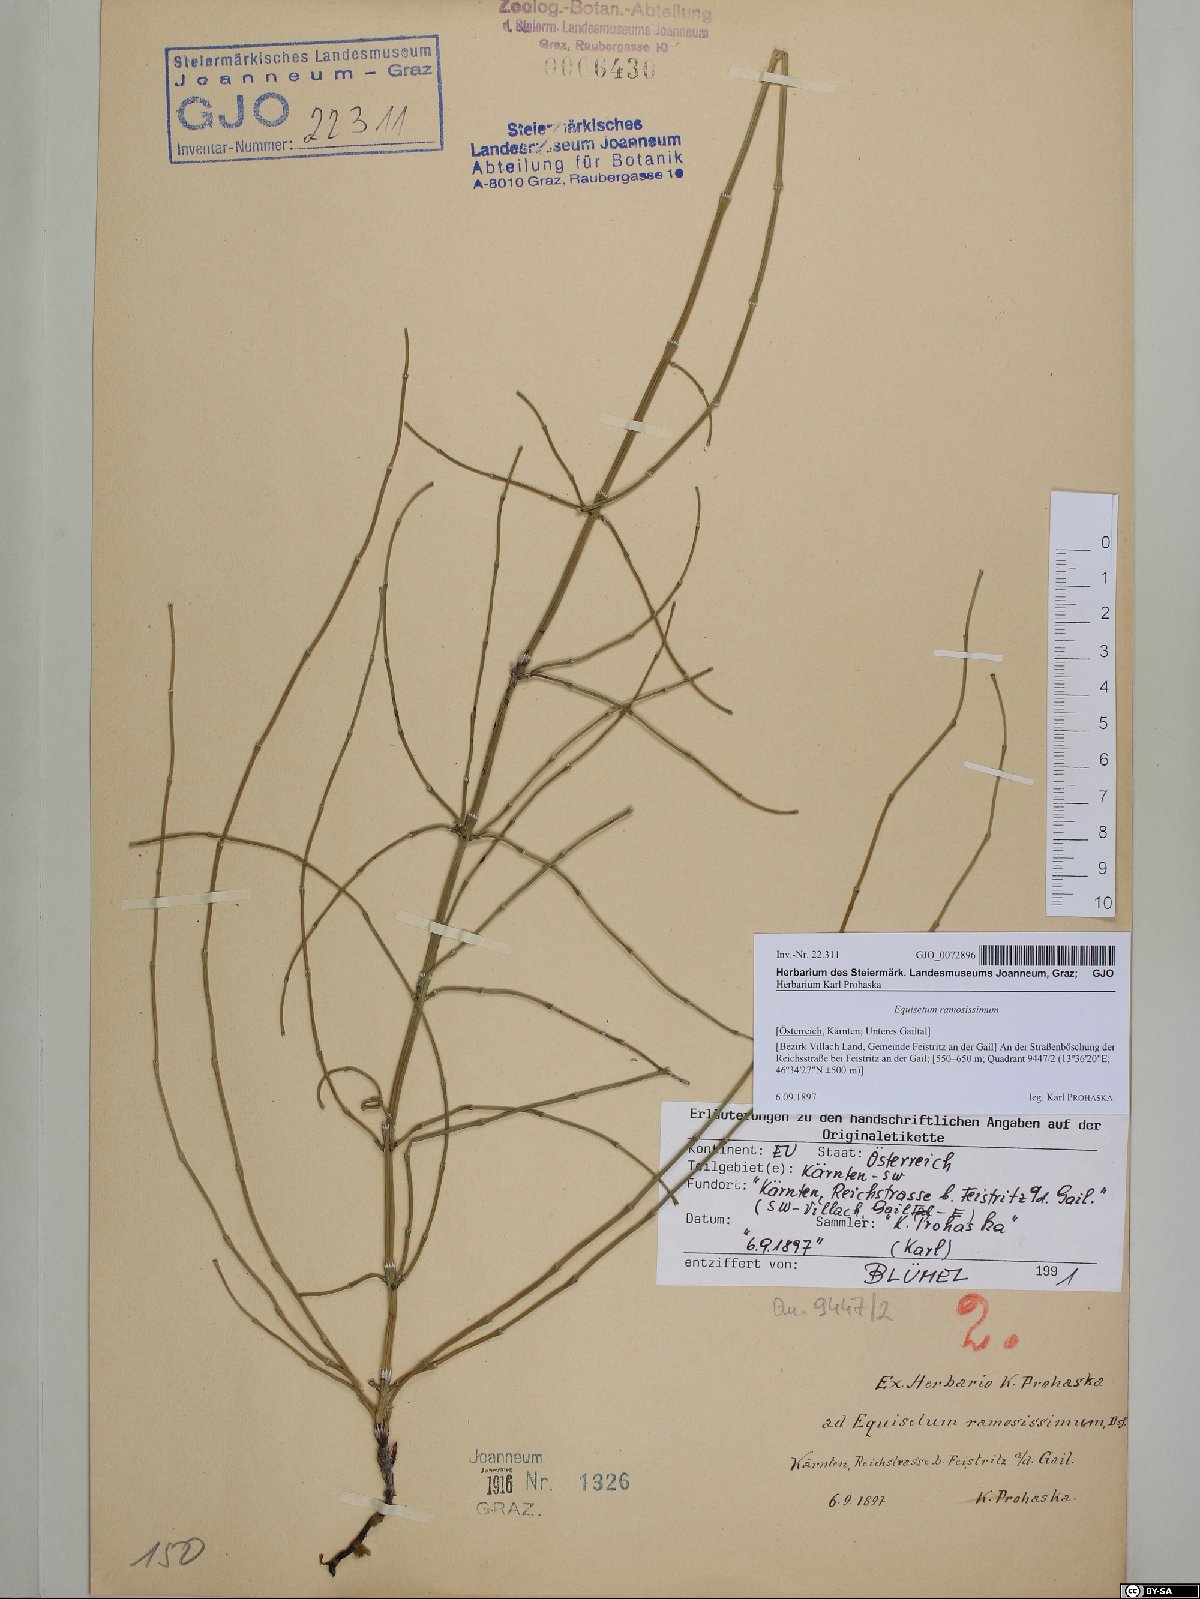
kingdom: Plantae
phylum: Tracheophyta
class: Polypodiopsida
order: Equisetales
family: Equisetaceae
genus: Equisetum
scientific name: Equisetum ramosissimum
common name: Branched horsetail
